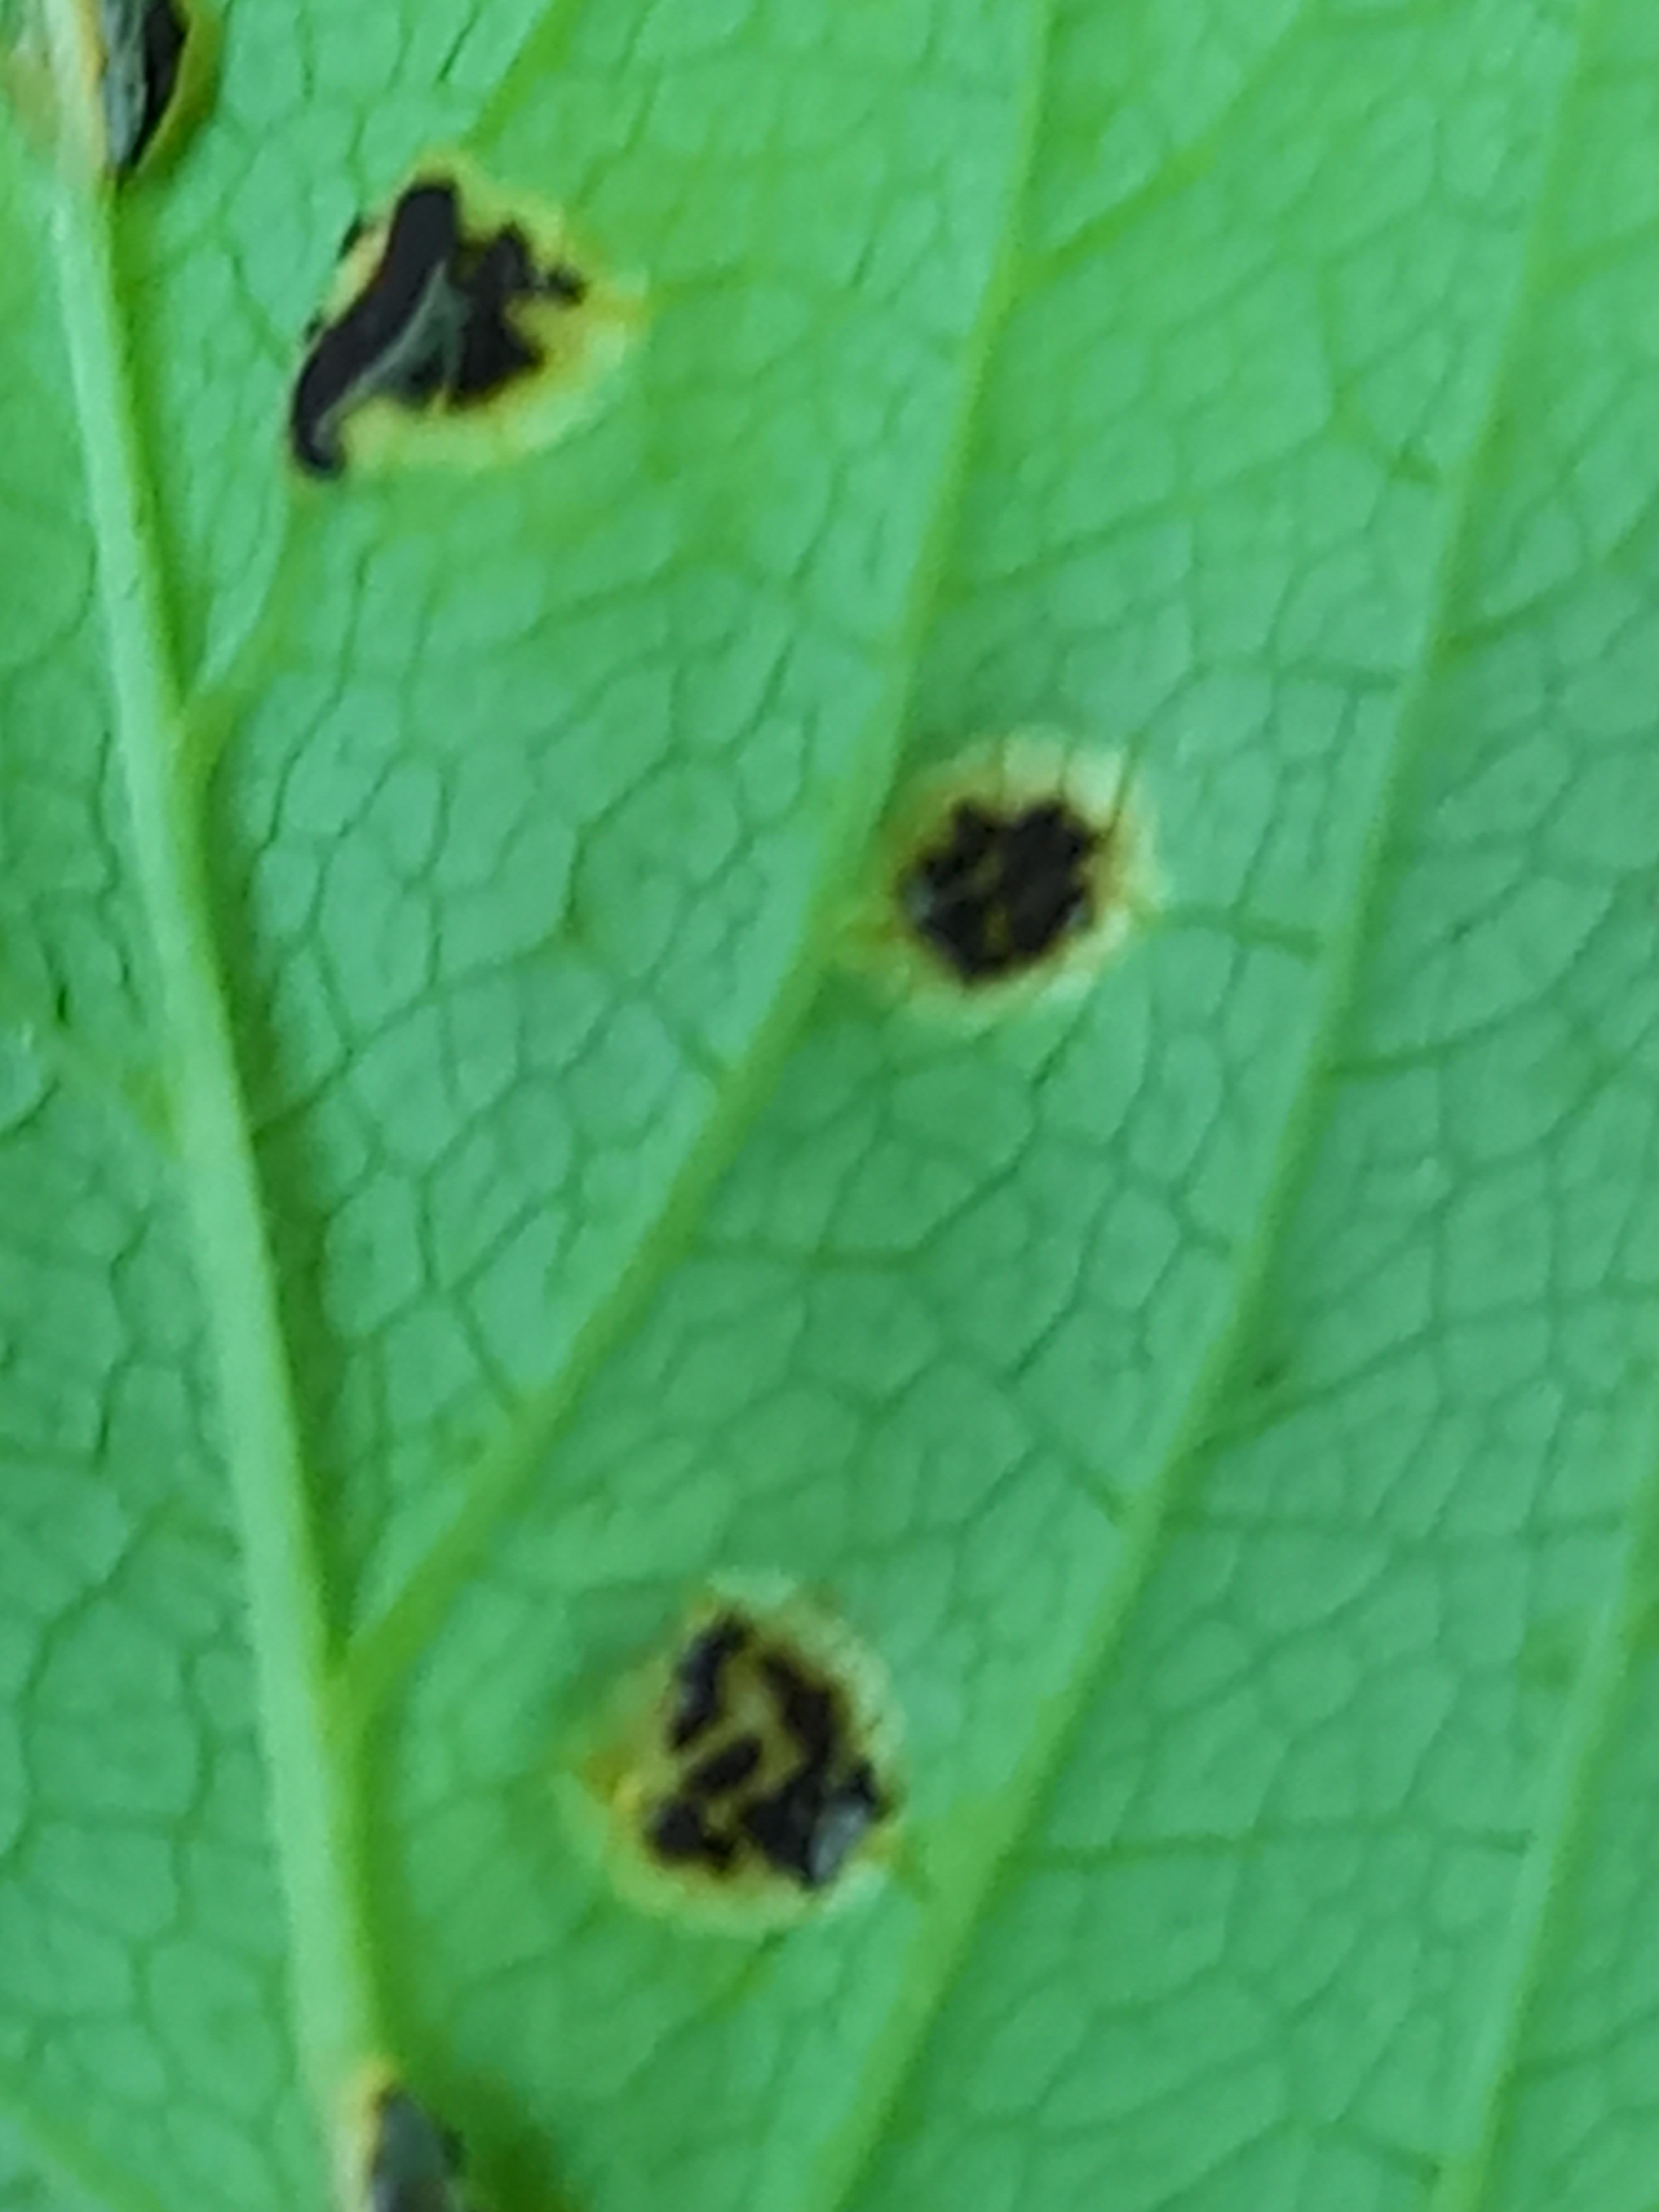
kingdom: Fungi
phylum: Basidiomycota
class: Pucciniomycetes
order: Pucciniales
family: Pucciniaceae
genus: Puccinia
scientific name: Puccinia
